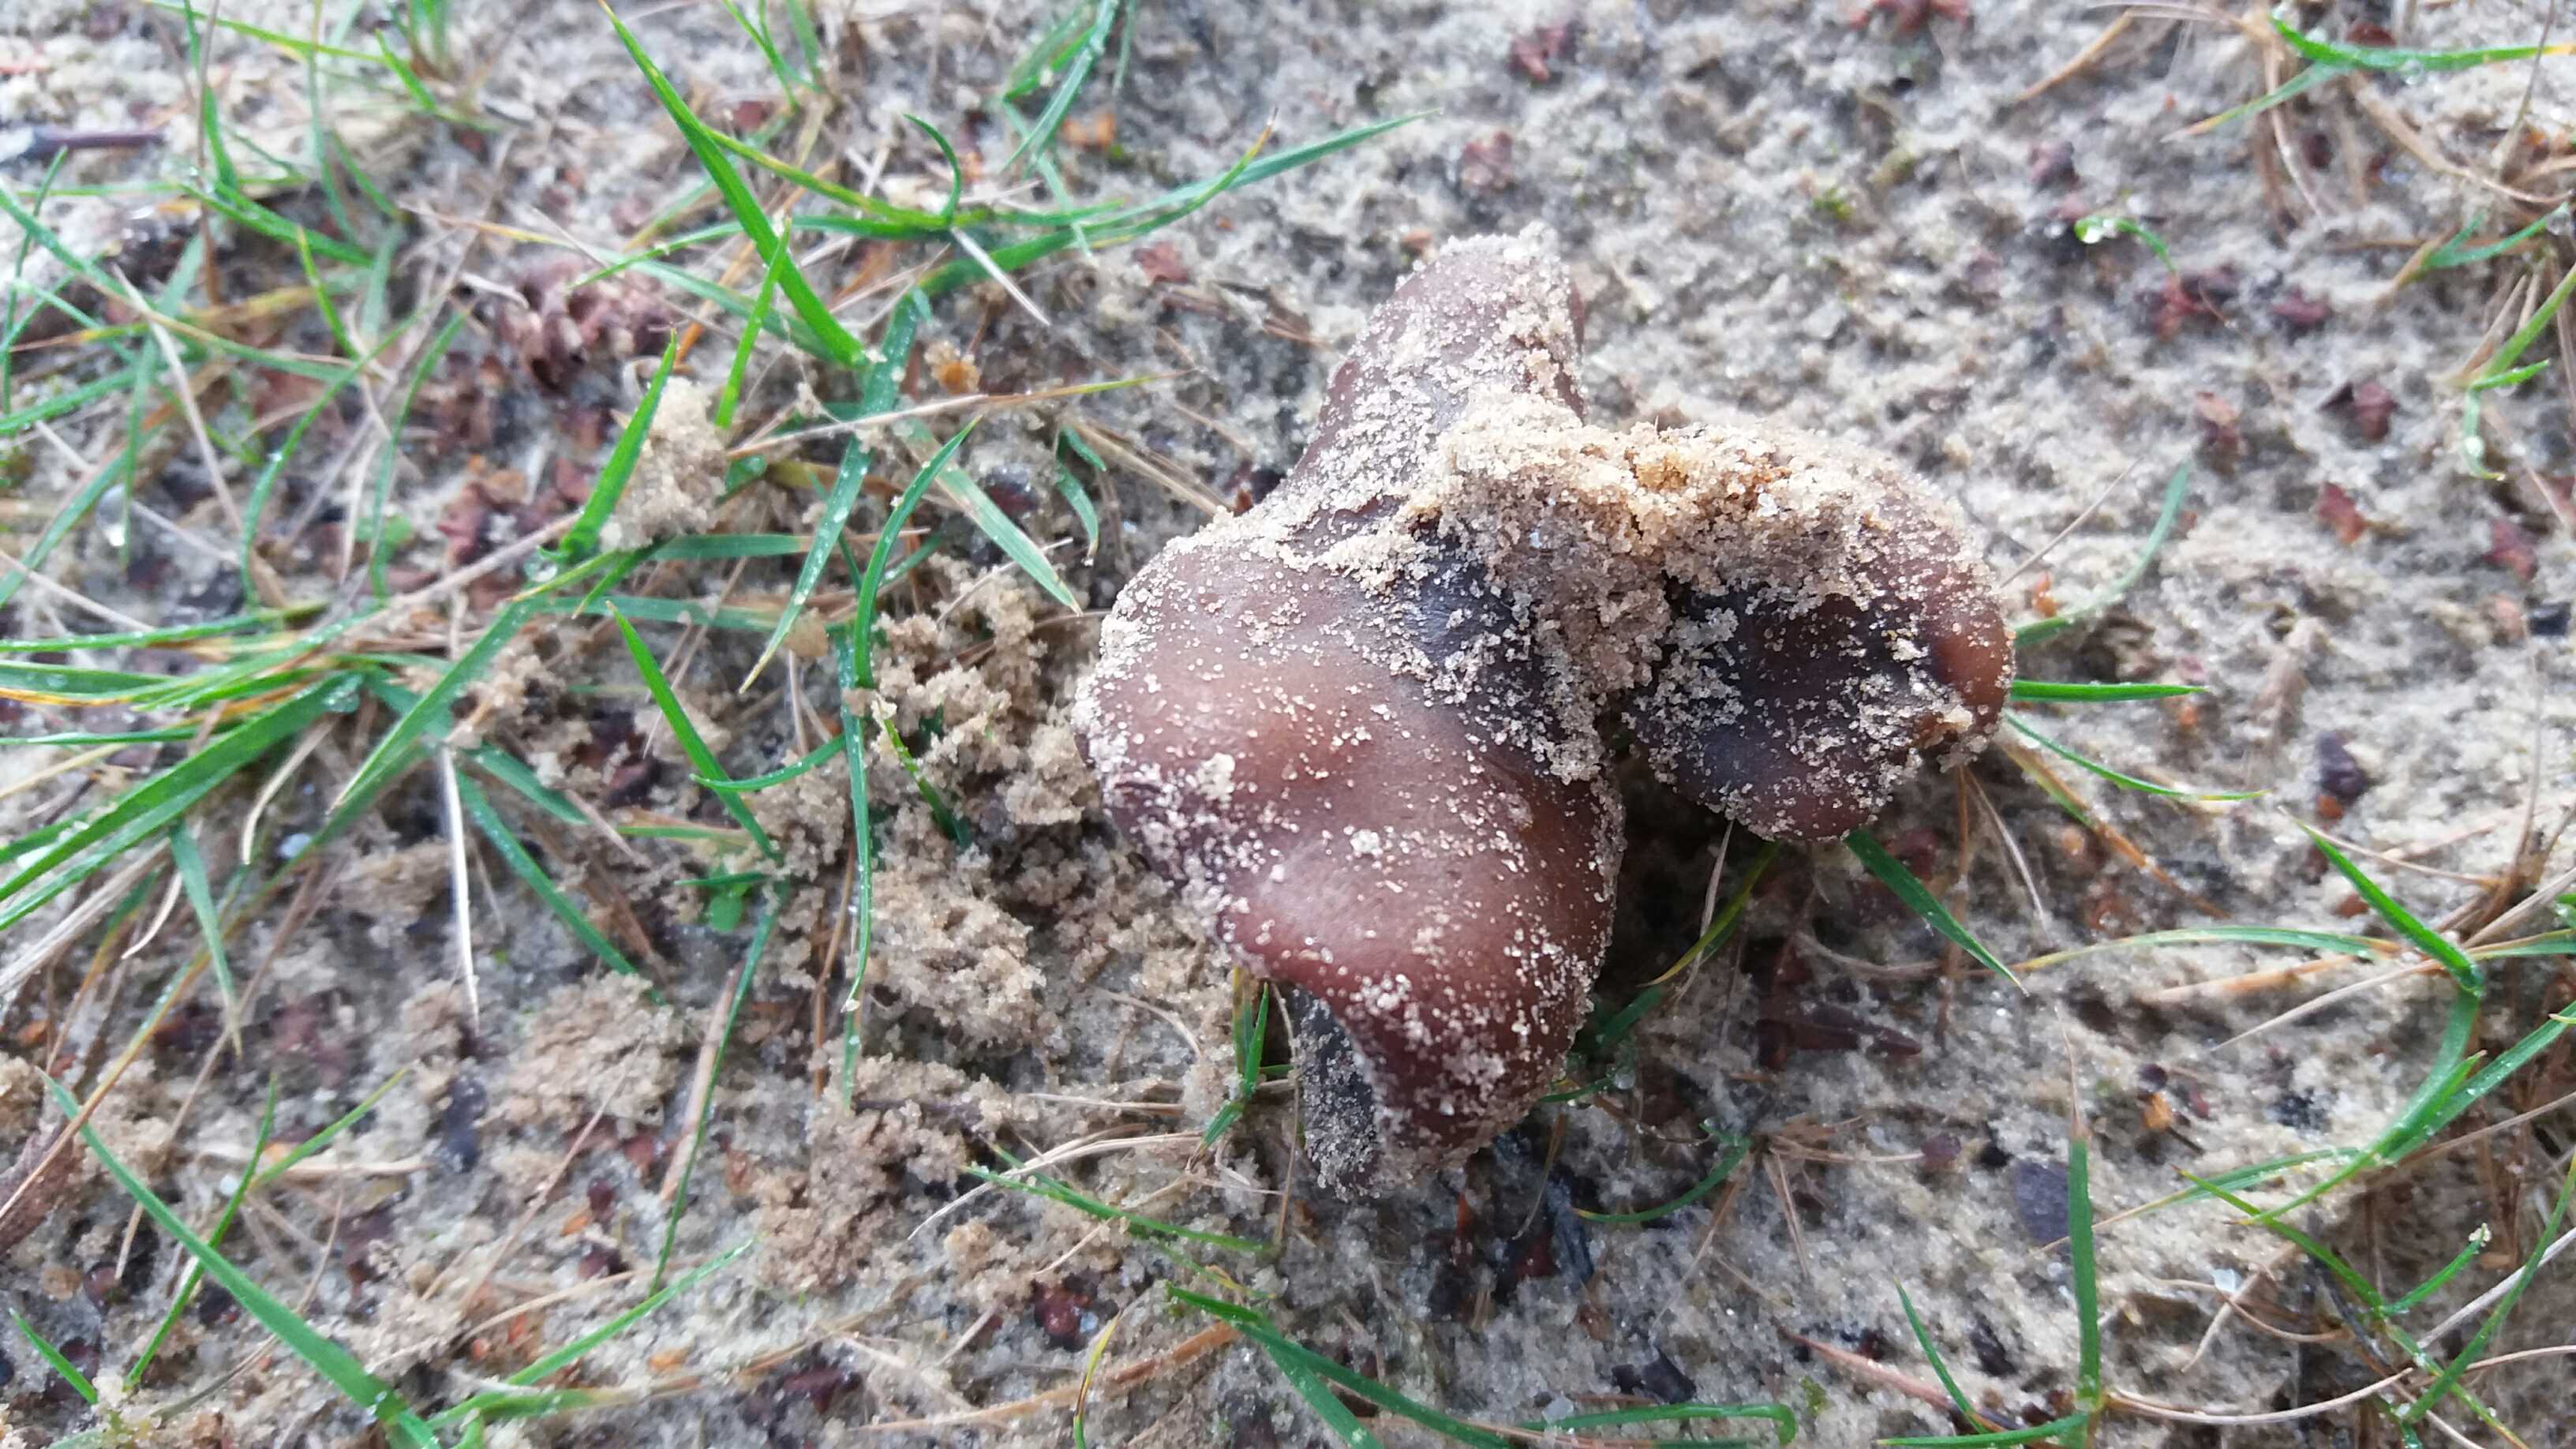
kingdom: Fungi
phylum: Ascomycota
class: Pezizomycetes
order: Pezizales
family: Pezizaceae
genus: Legaliana
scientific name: Legaliana badia
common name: leverbrun bægersvamp
